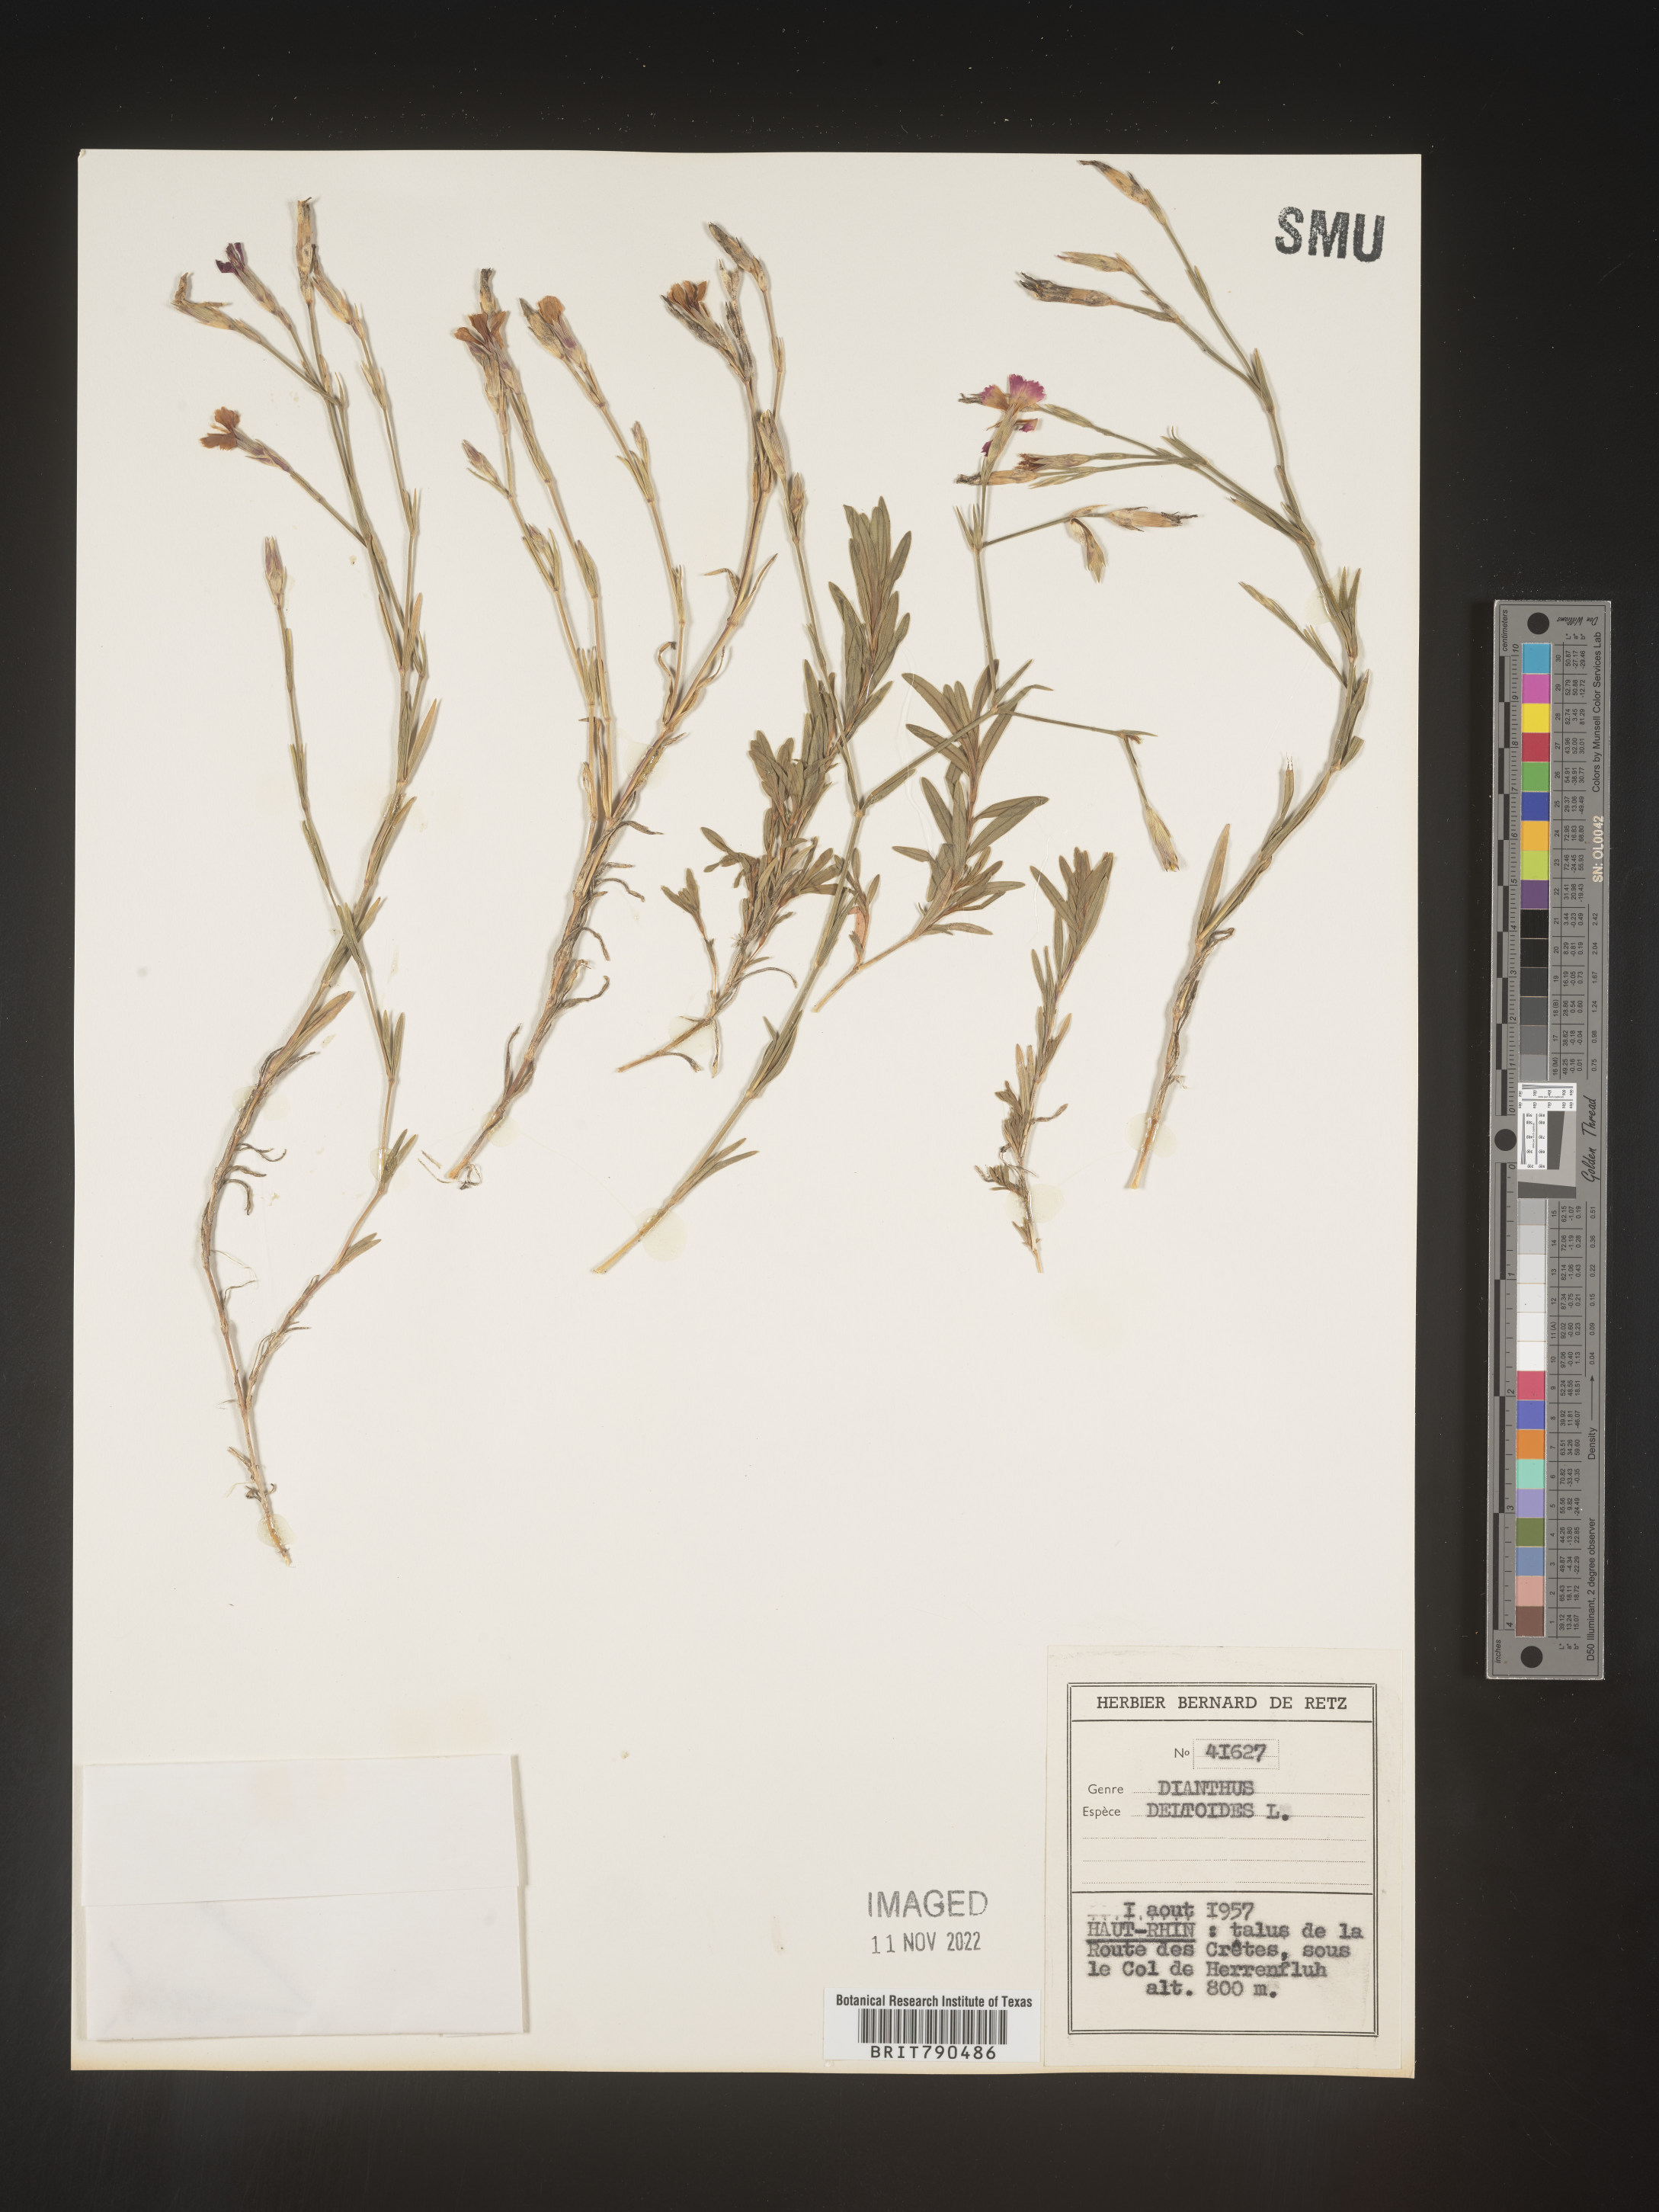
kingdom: Plantae
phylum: Tracheophyta
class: Magnoliopsida
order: Caryophyllales
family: Caryophyllaceae
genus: Dianthus
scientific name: Dianthus deltoides
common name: Maiden pink
